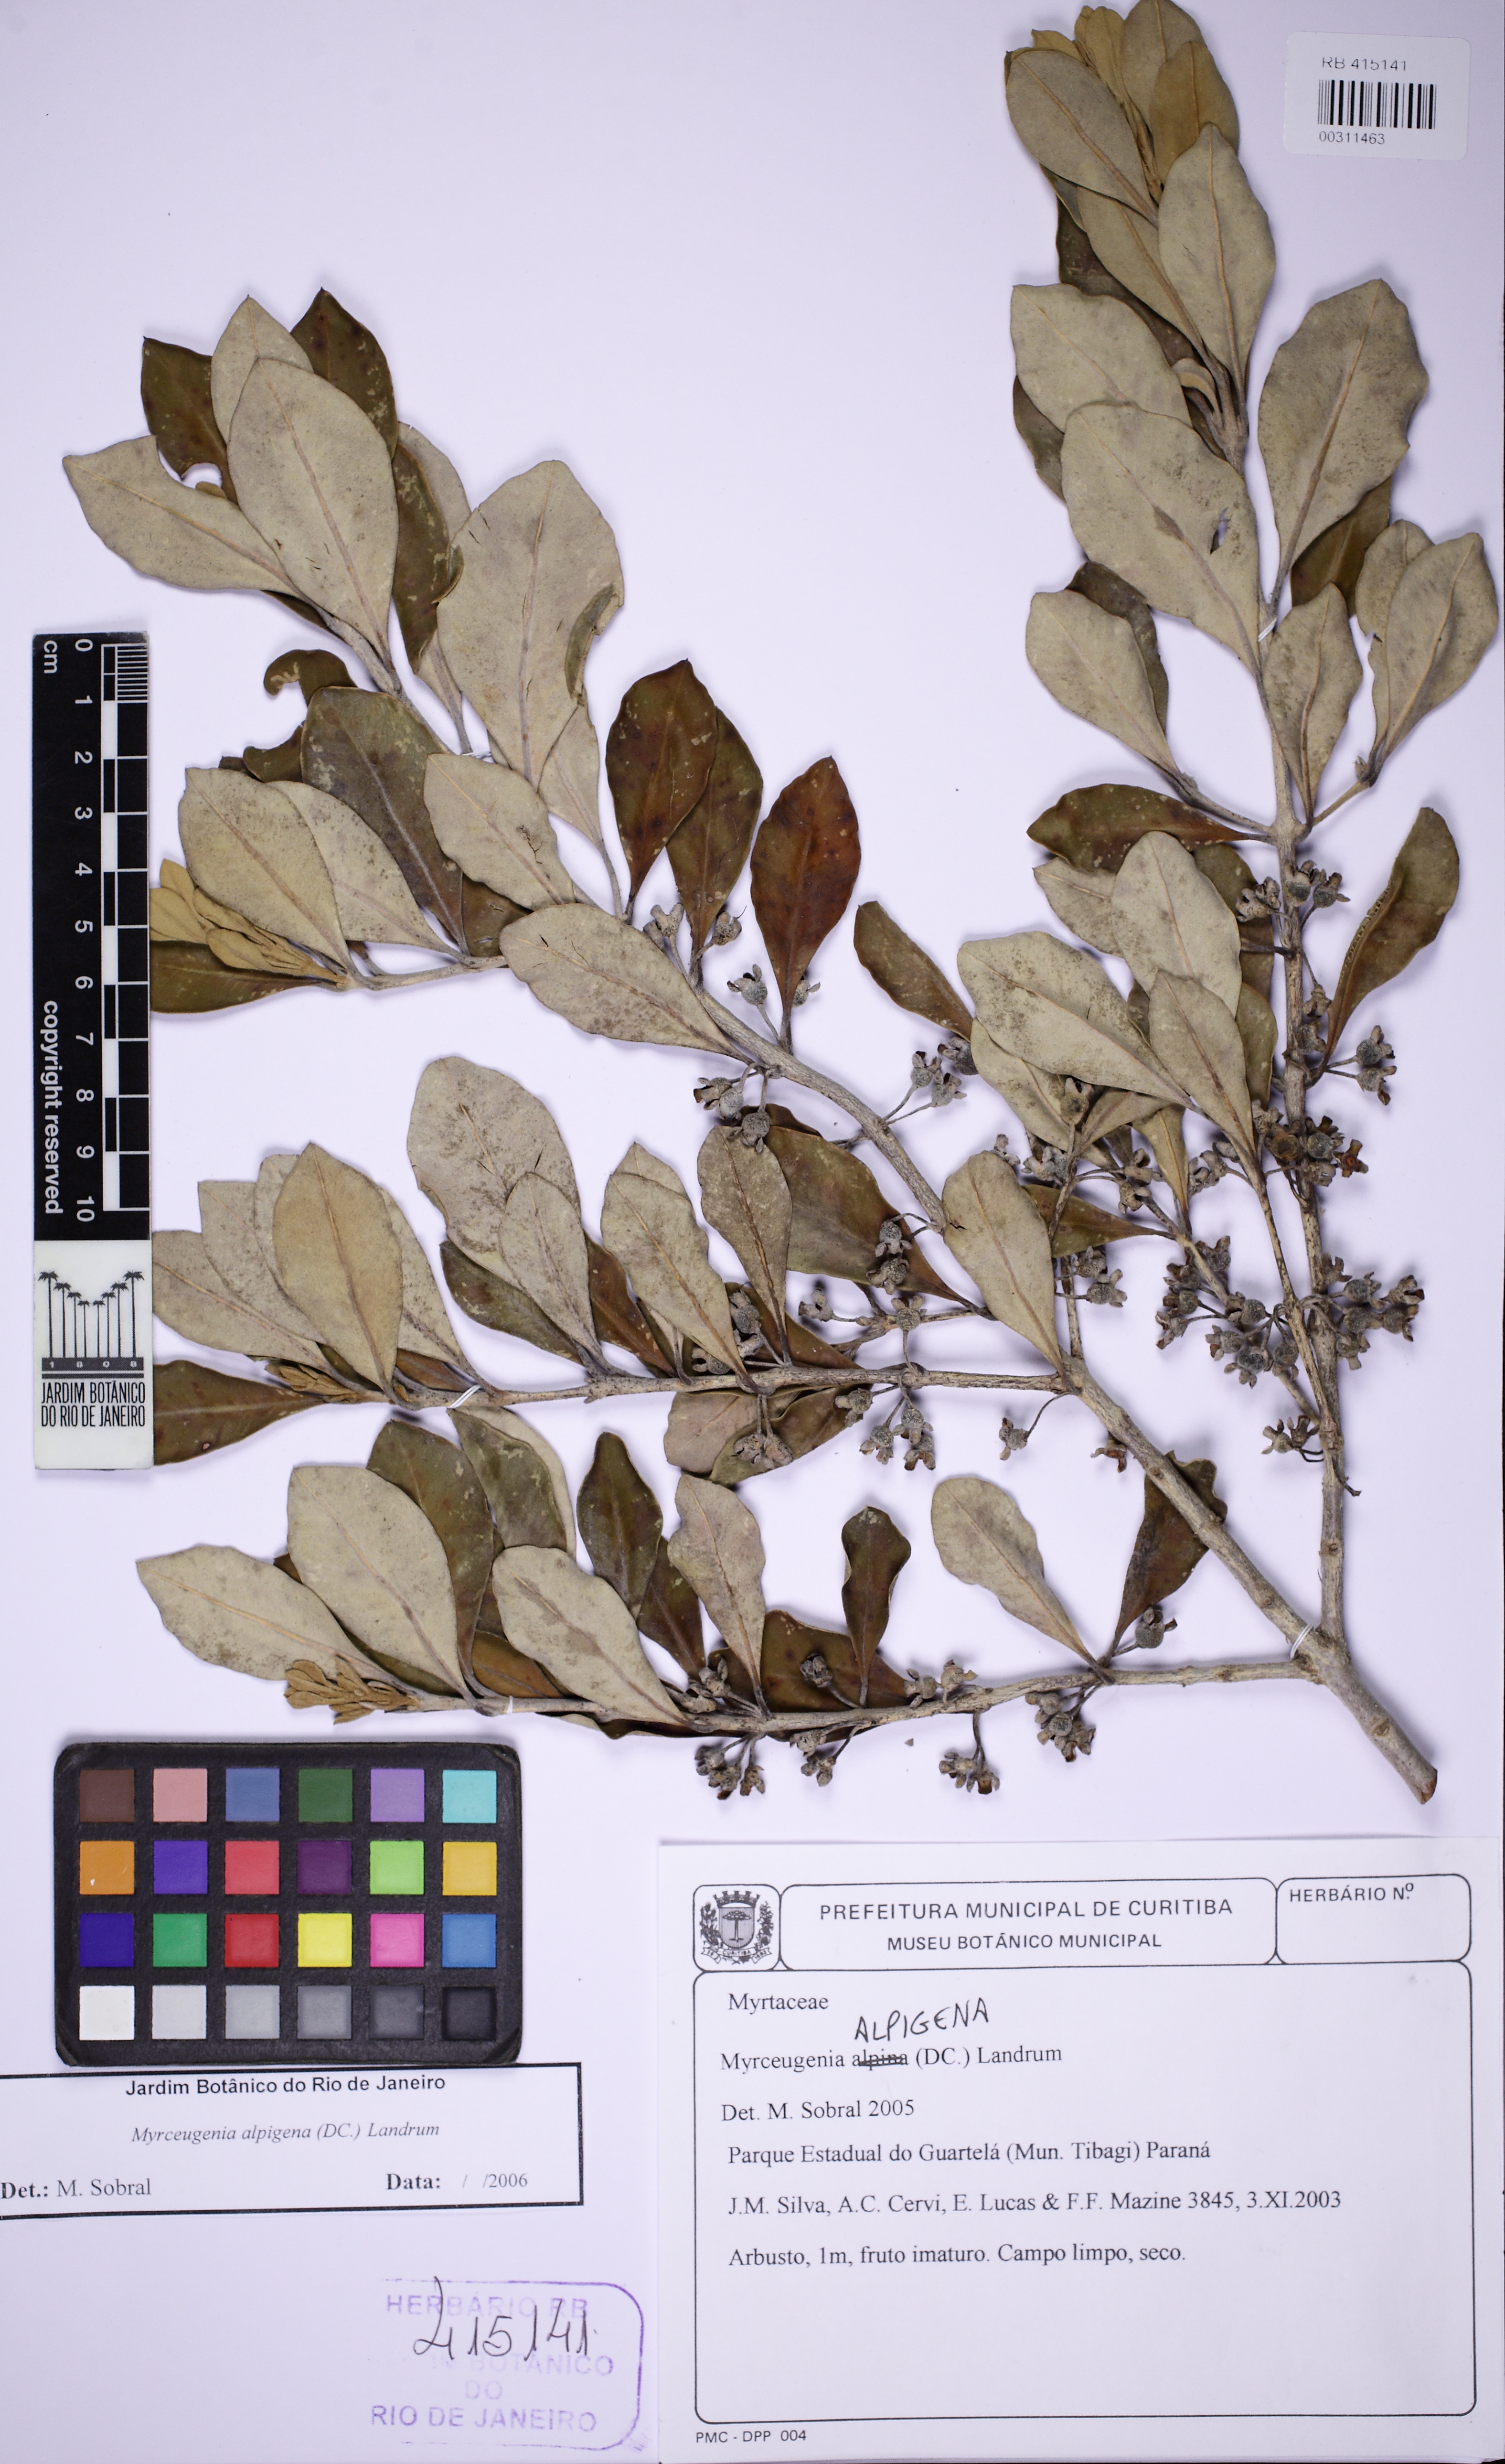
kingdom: Plantae
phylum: Tracheophyta
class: Magnoliopsida
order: Myrtales
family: Myrtaceae
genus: Myrceugenia
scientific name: Myrceugenia alpigena
